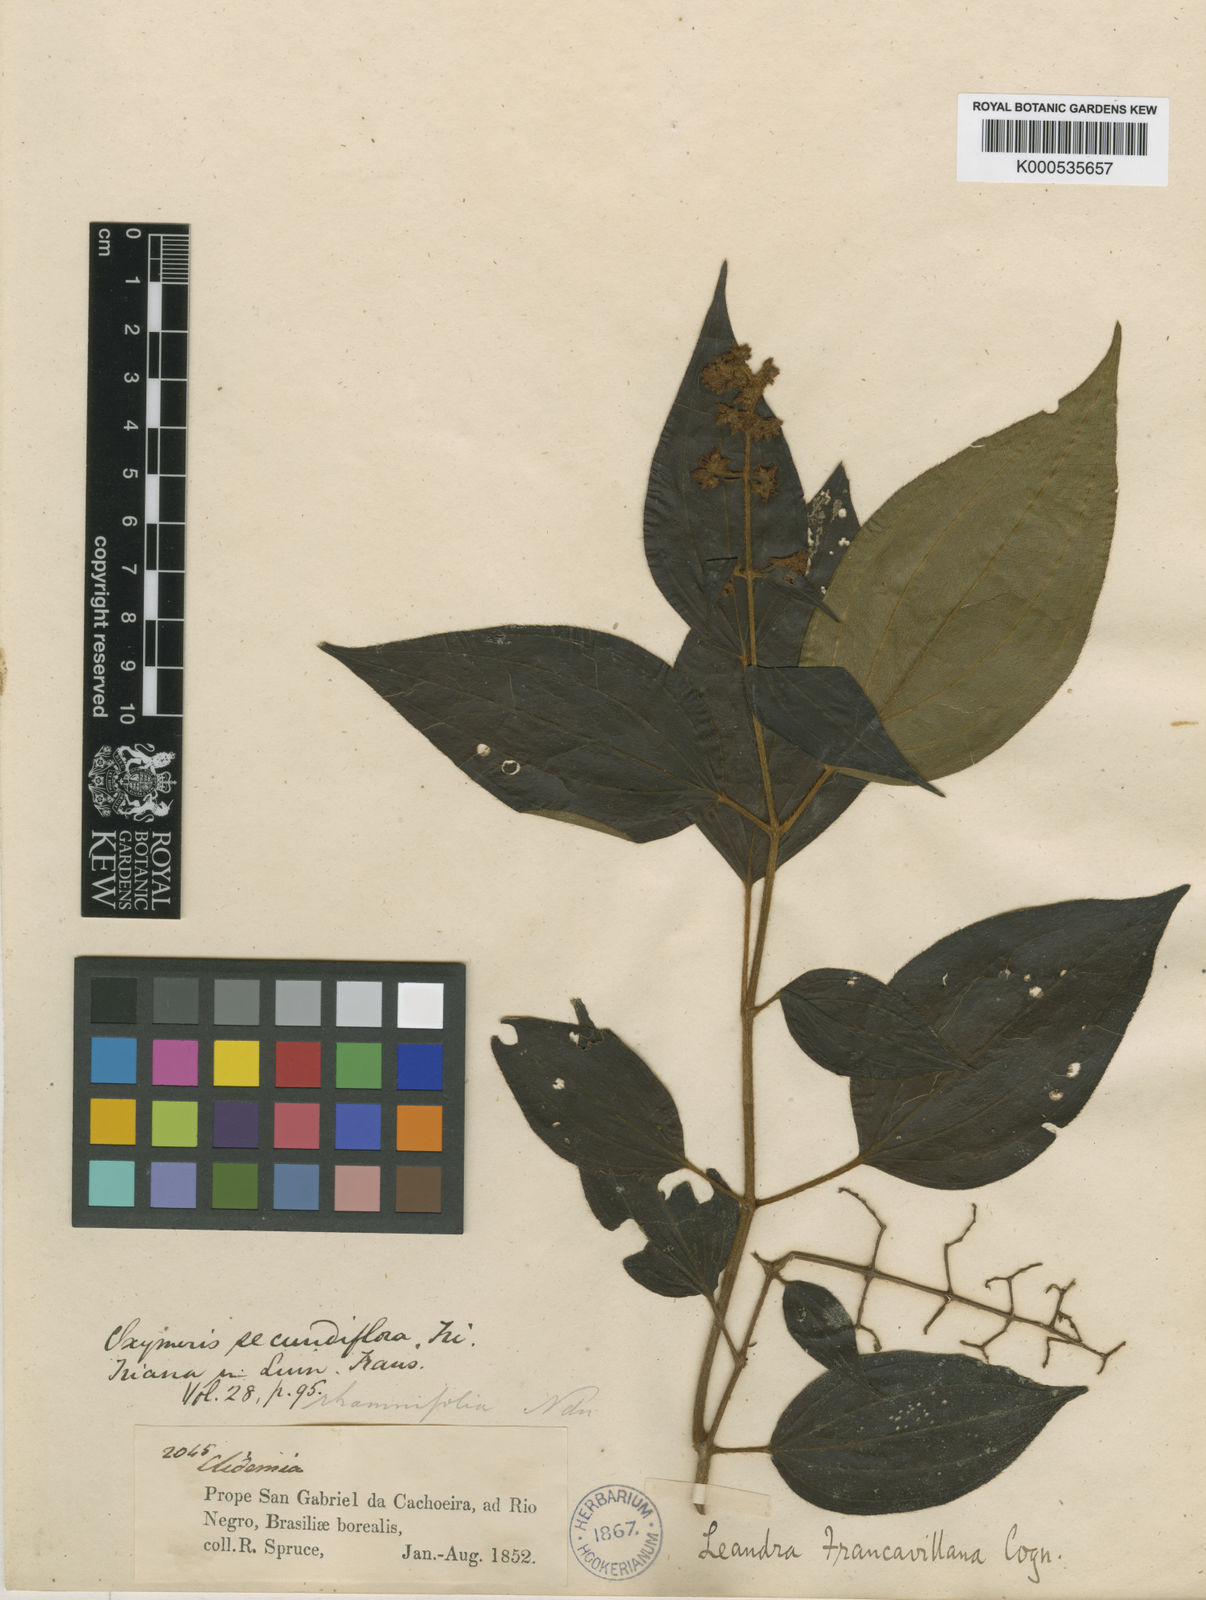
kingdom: Plantae
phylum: Tracheophyta
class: Magnoliopsida
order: Myrtales
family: Melastomataceae
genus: Miconia
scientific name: Miconia secunfrancavillana
